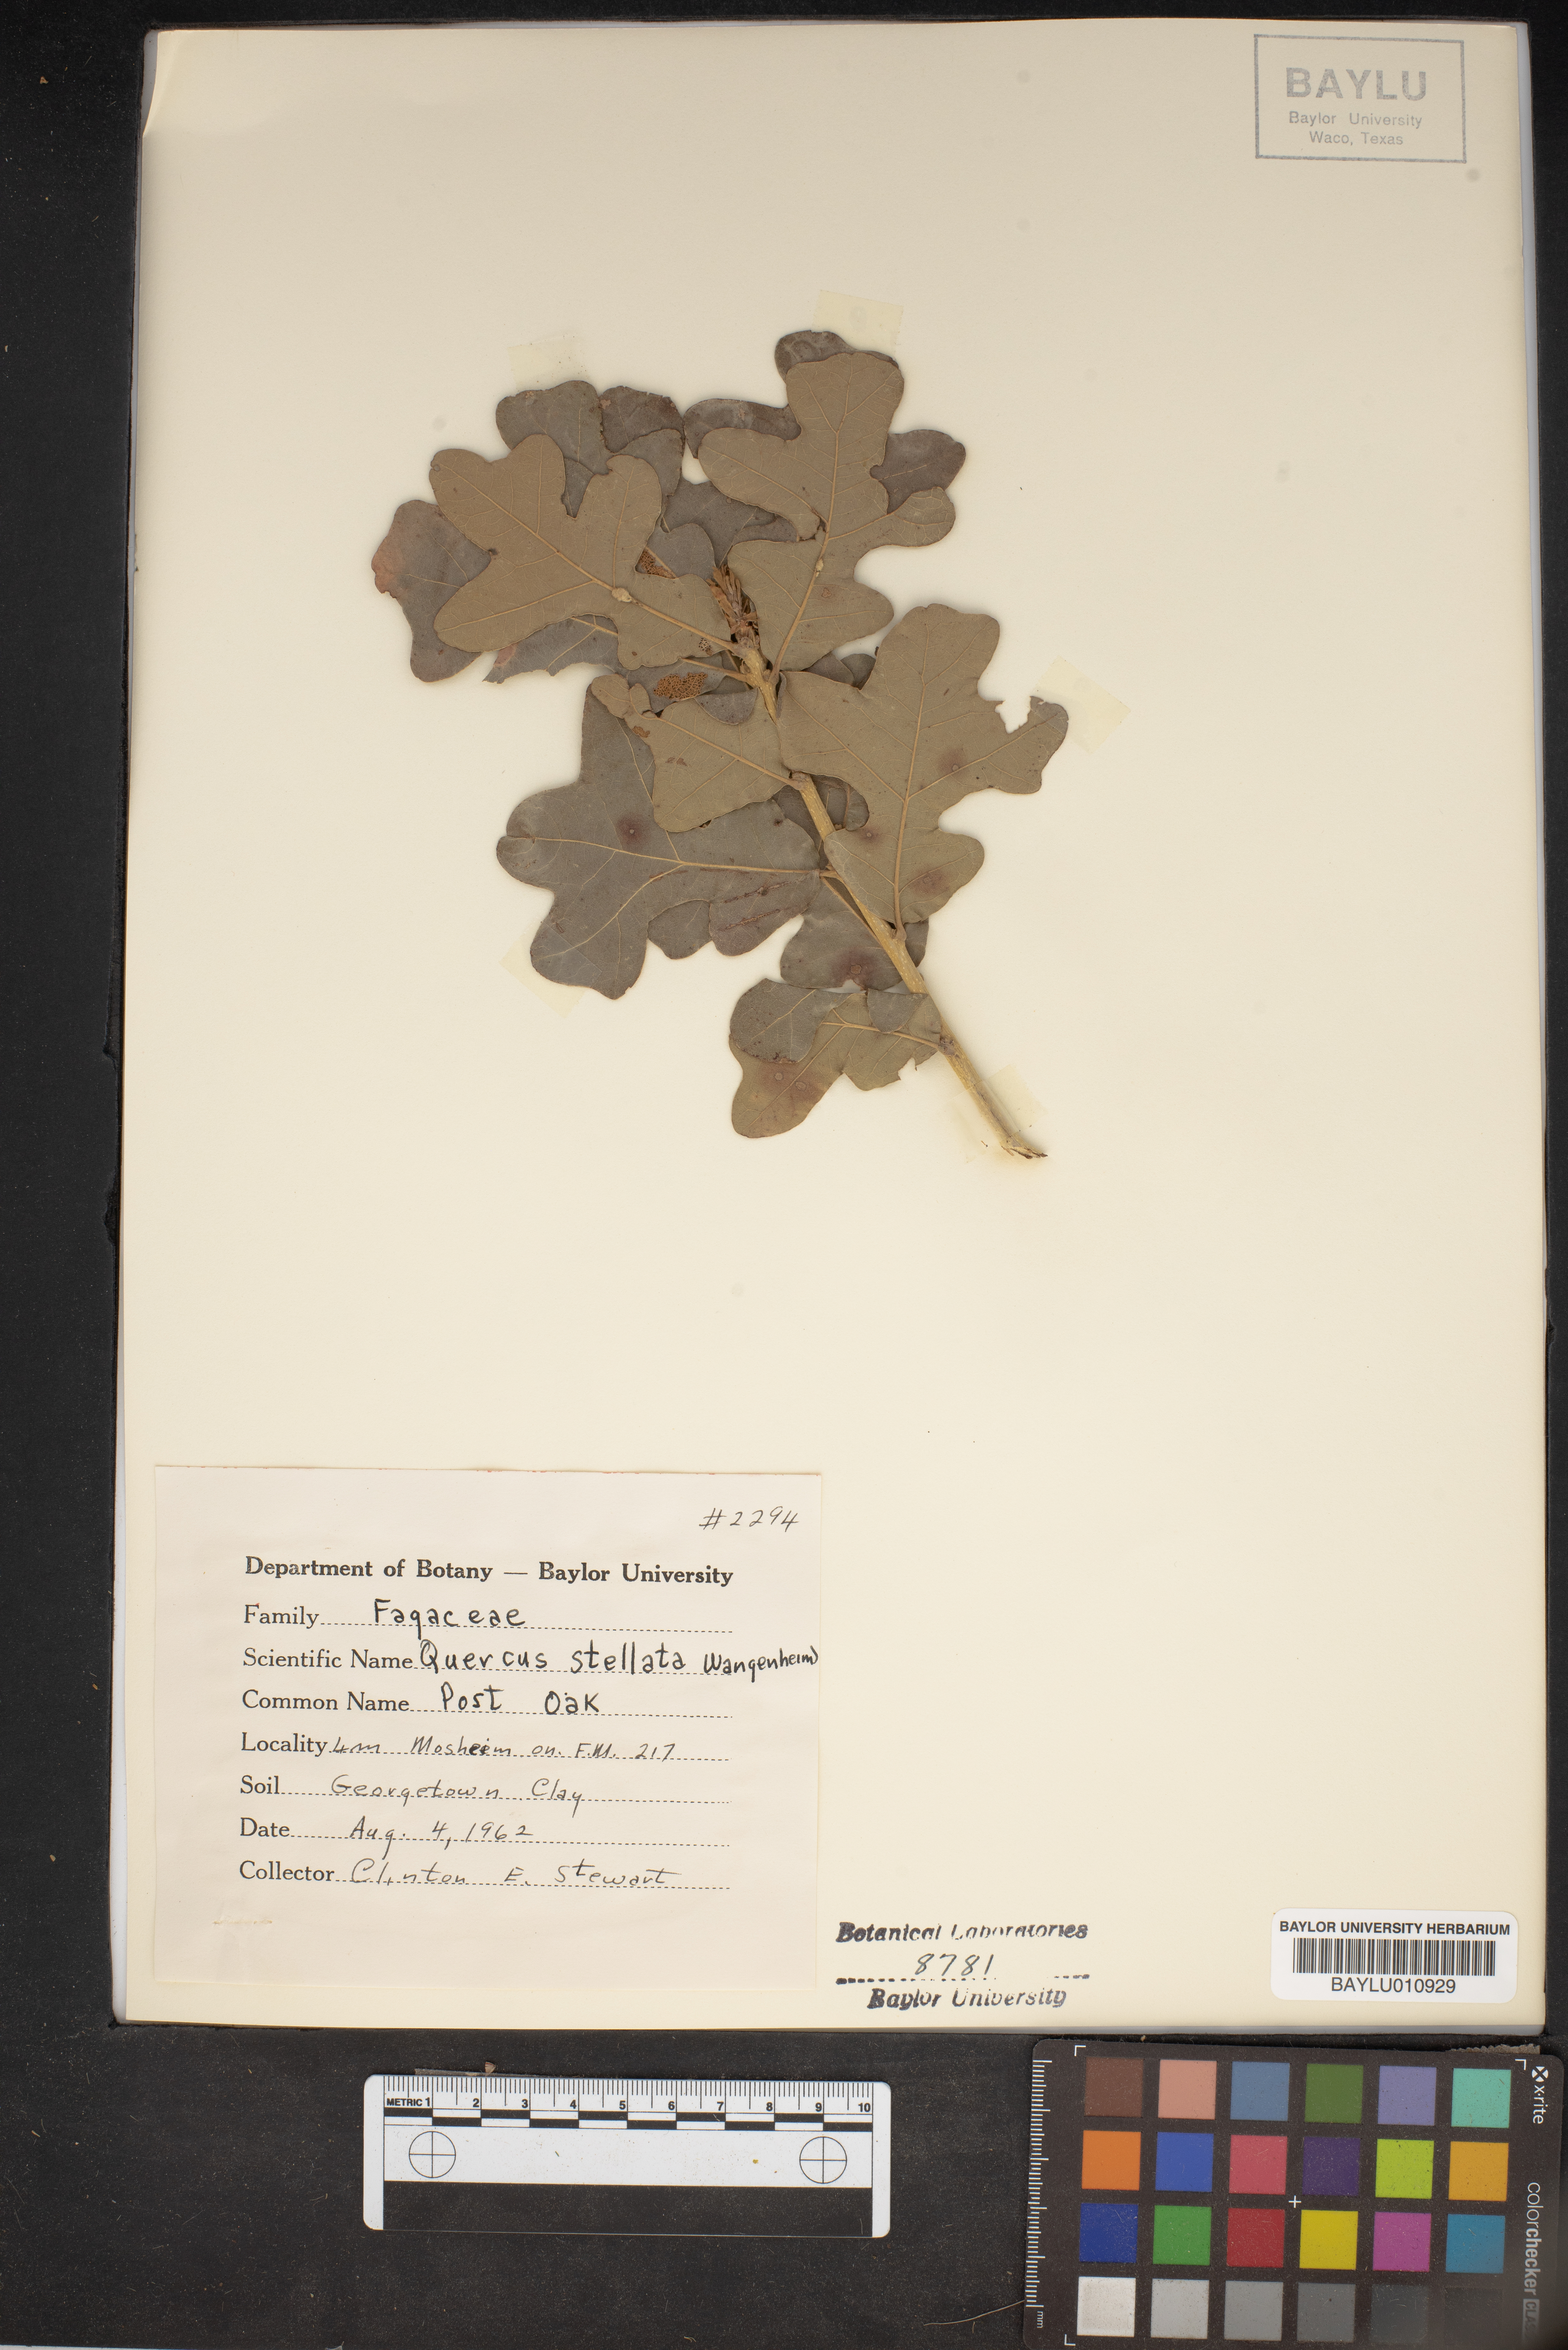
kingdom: Plantae
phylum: Tracheophyta
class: Magnoliopsida
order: Fagales
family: Fagaceae
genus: Quercus
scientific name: Quercus stellata
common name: Post oak
